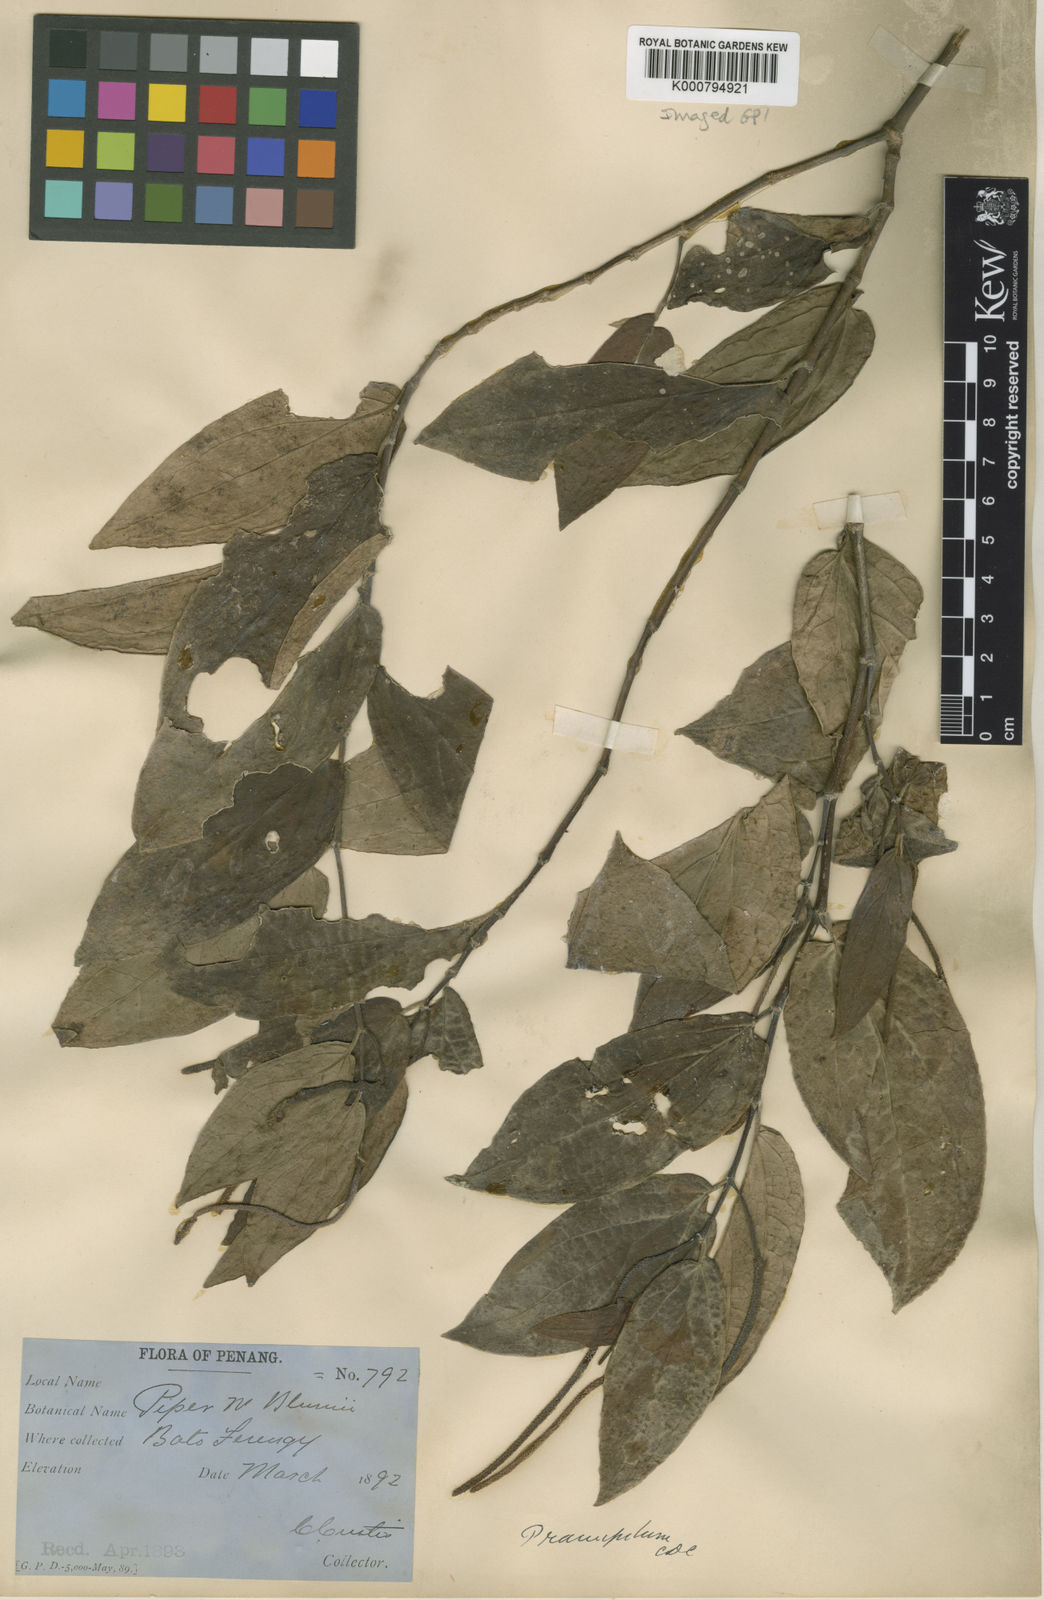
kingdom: Plantae
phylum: Tracheophyta
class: Magnoliopsida
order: Piperales
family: Piperaceae
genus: Piper
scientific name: Piper frustratum
